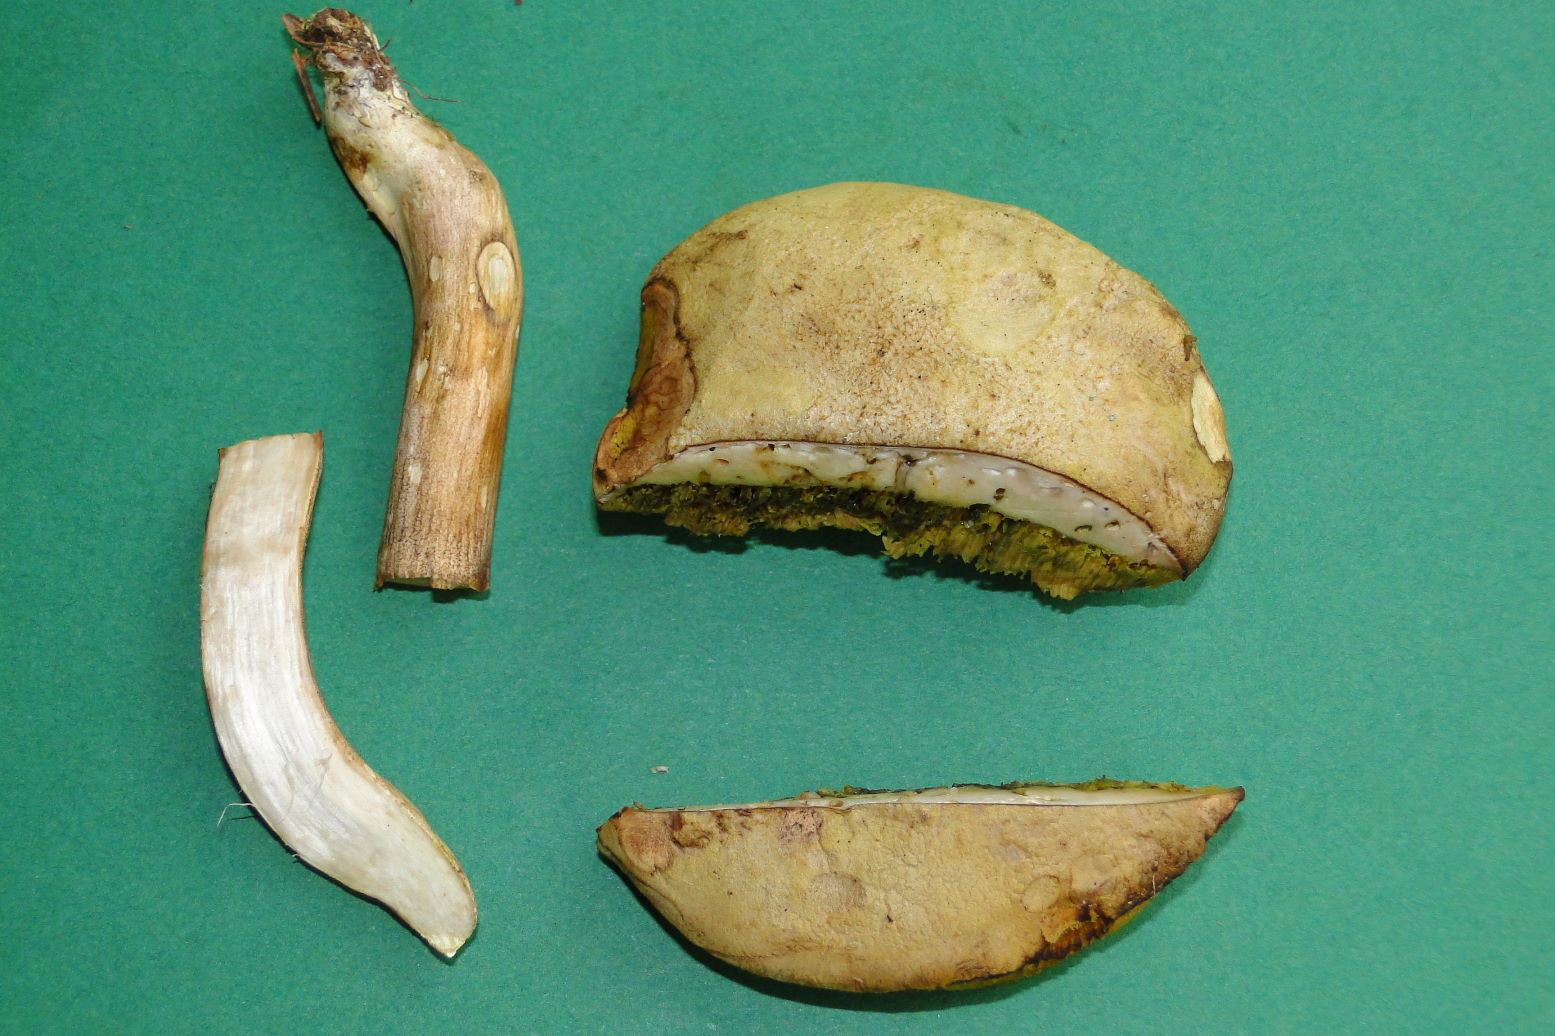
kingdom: Fungi
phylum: Basidiomycota
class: Agaricomycetes
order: Boletales
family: Boletaceae
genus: Xerocomus
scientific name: Xerocomus ferrugineus
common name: vaskeskinds-rørhat
